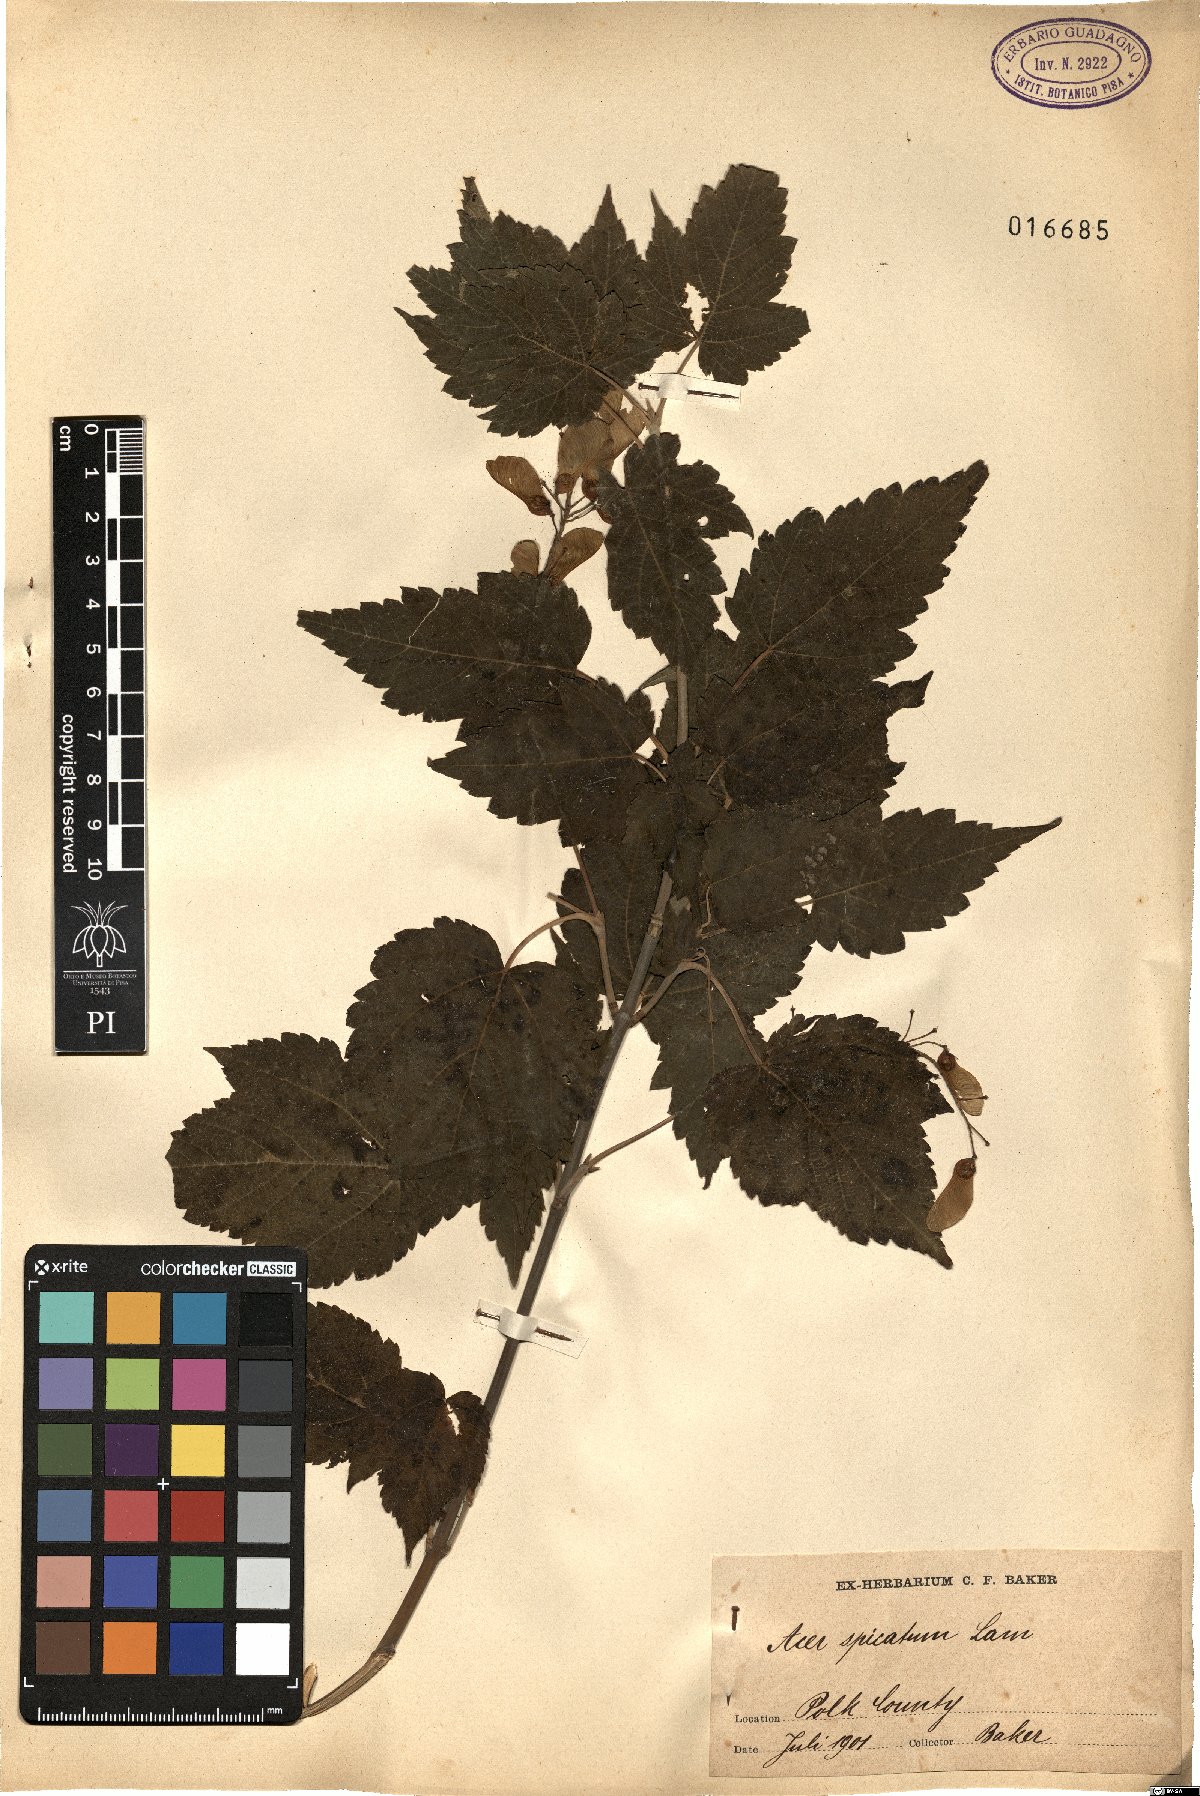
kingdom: Plantae
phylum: Tracheophyta
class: Magnoliopsida
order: Sapindales
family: Sapindaceae
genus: Acer
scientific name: Acer spicatum
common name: Mountain maple
